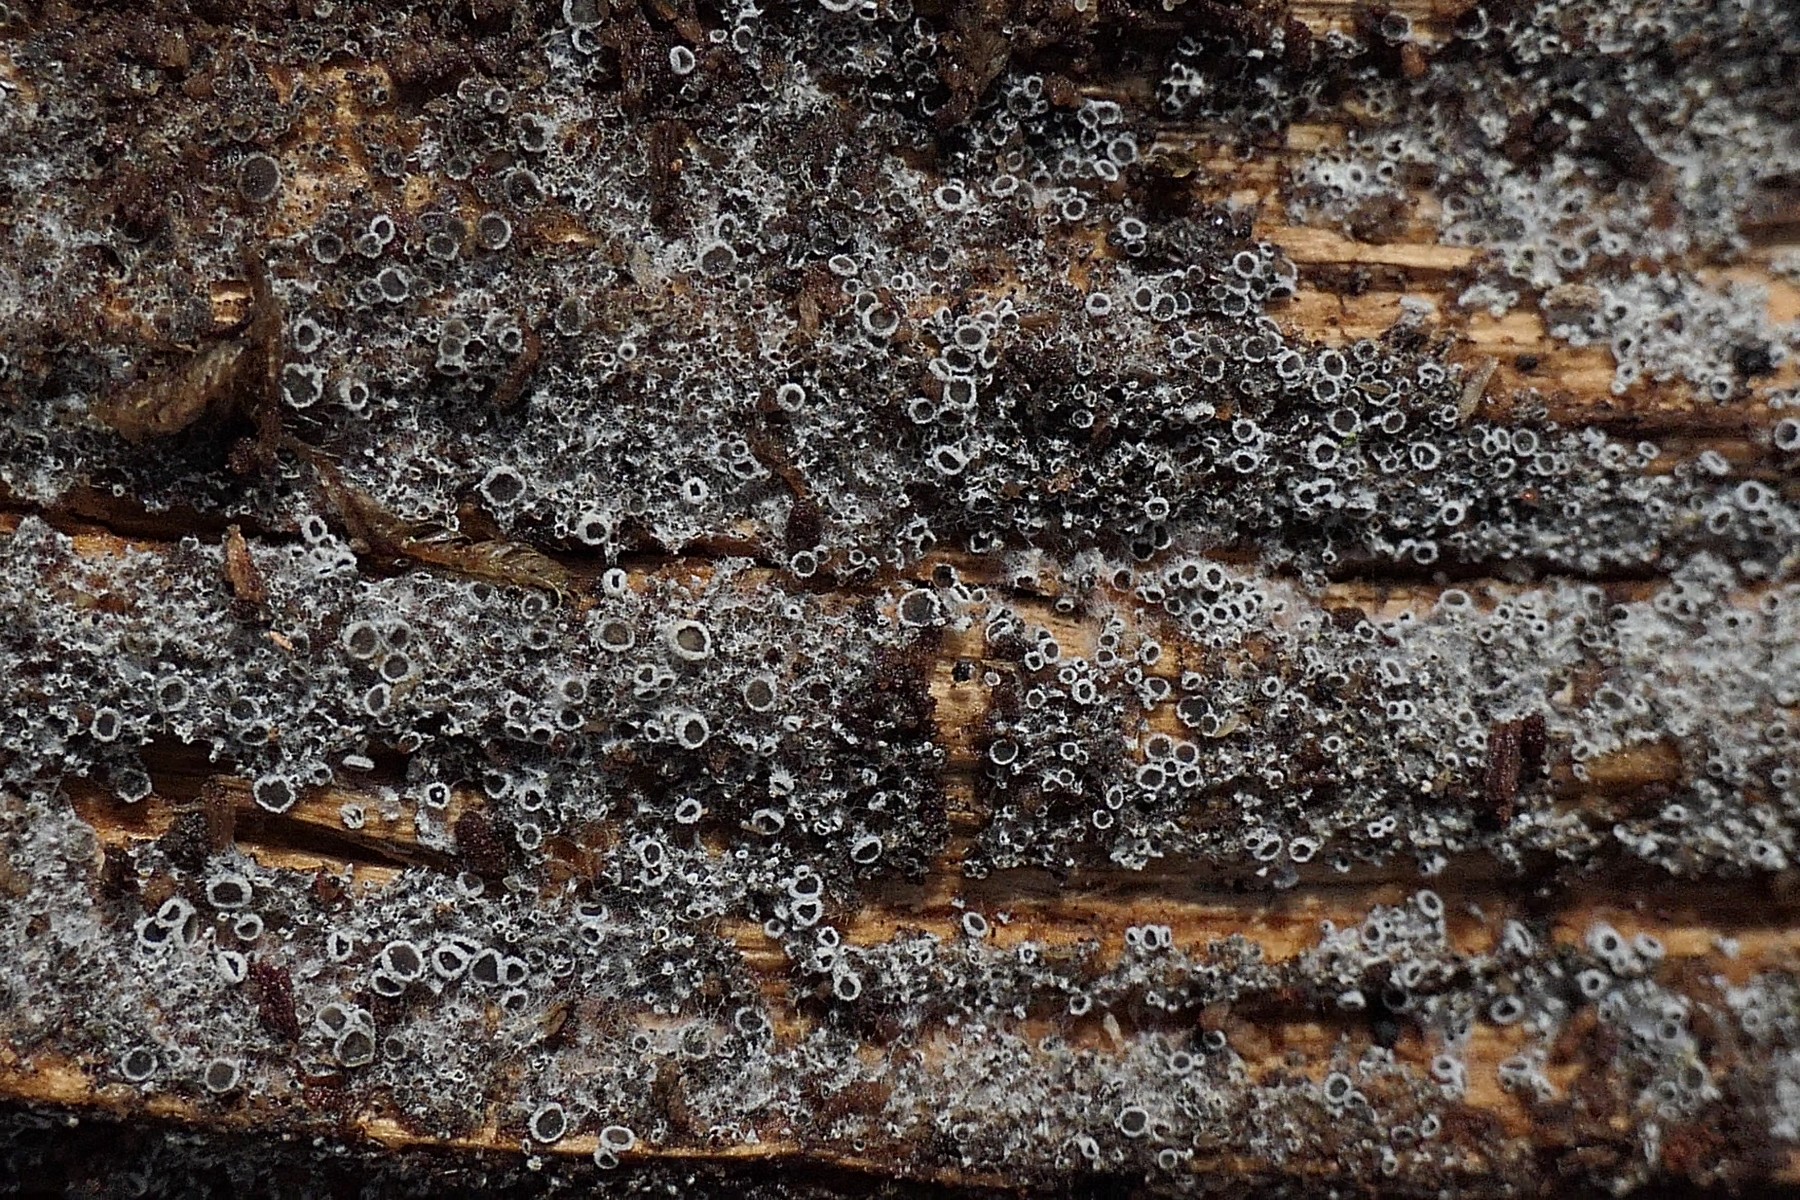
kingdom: Fungi
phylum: Ascomycota
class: Leotiomycetes
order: Helotiales
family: Arachnopezizaceae
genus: Eriopezia
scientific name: Eriopezia caesia
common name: ege-spindskive
